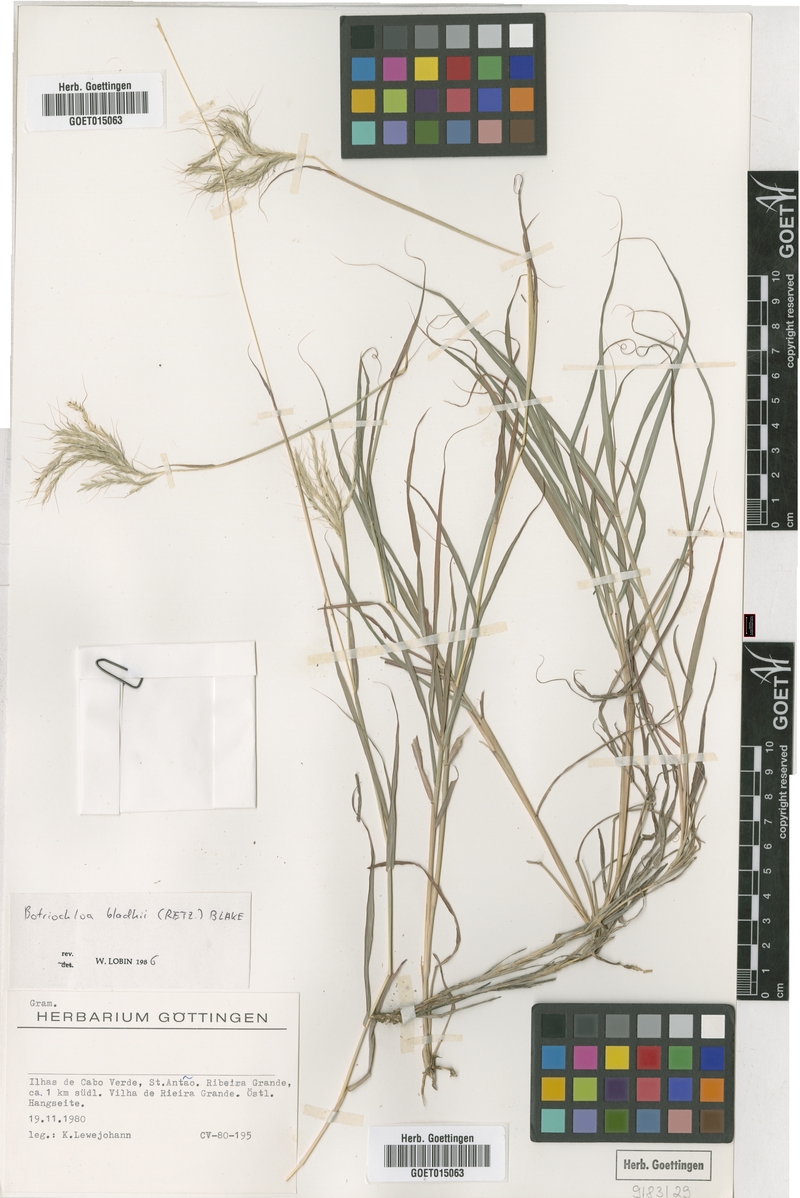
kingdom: Plantae
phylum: Tracheophyta
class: Liliopsida
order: Poales
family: Poaceae
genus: Bothriochloa
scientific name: Bothriochloa bladhii
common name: Caucasian bluestem
